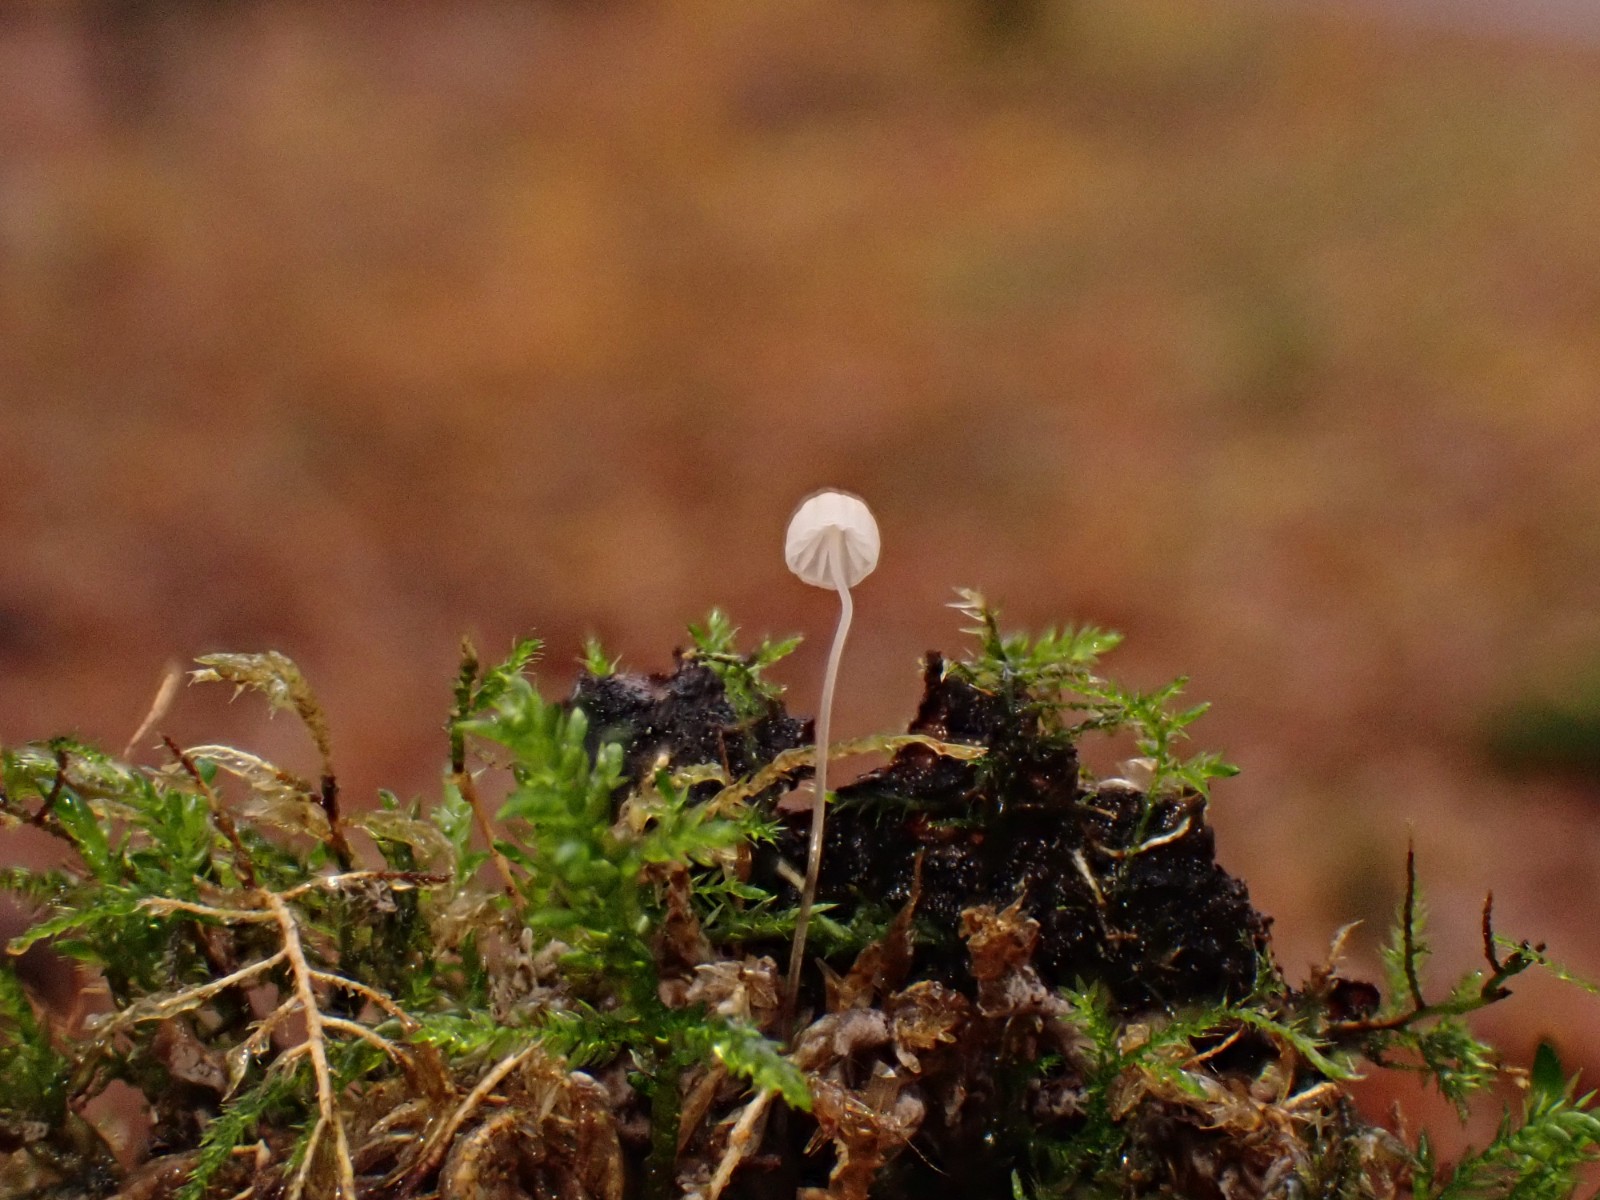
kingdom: Fungi
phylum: Basidiomycota
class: Agaricomycetes
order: Agaricales
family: Mycenaceae
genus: Mycena
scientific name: Mycena
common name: huesvamp
